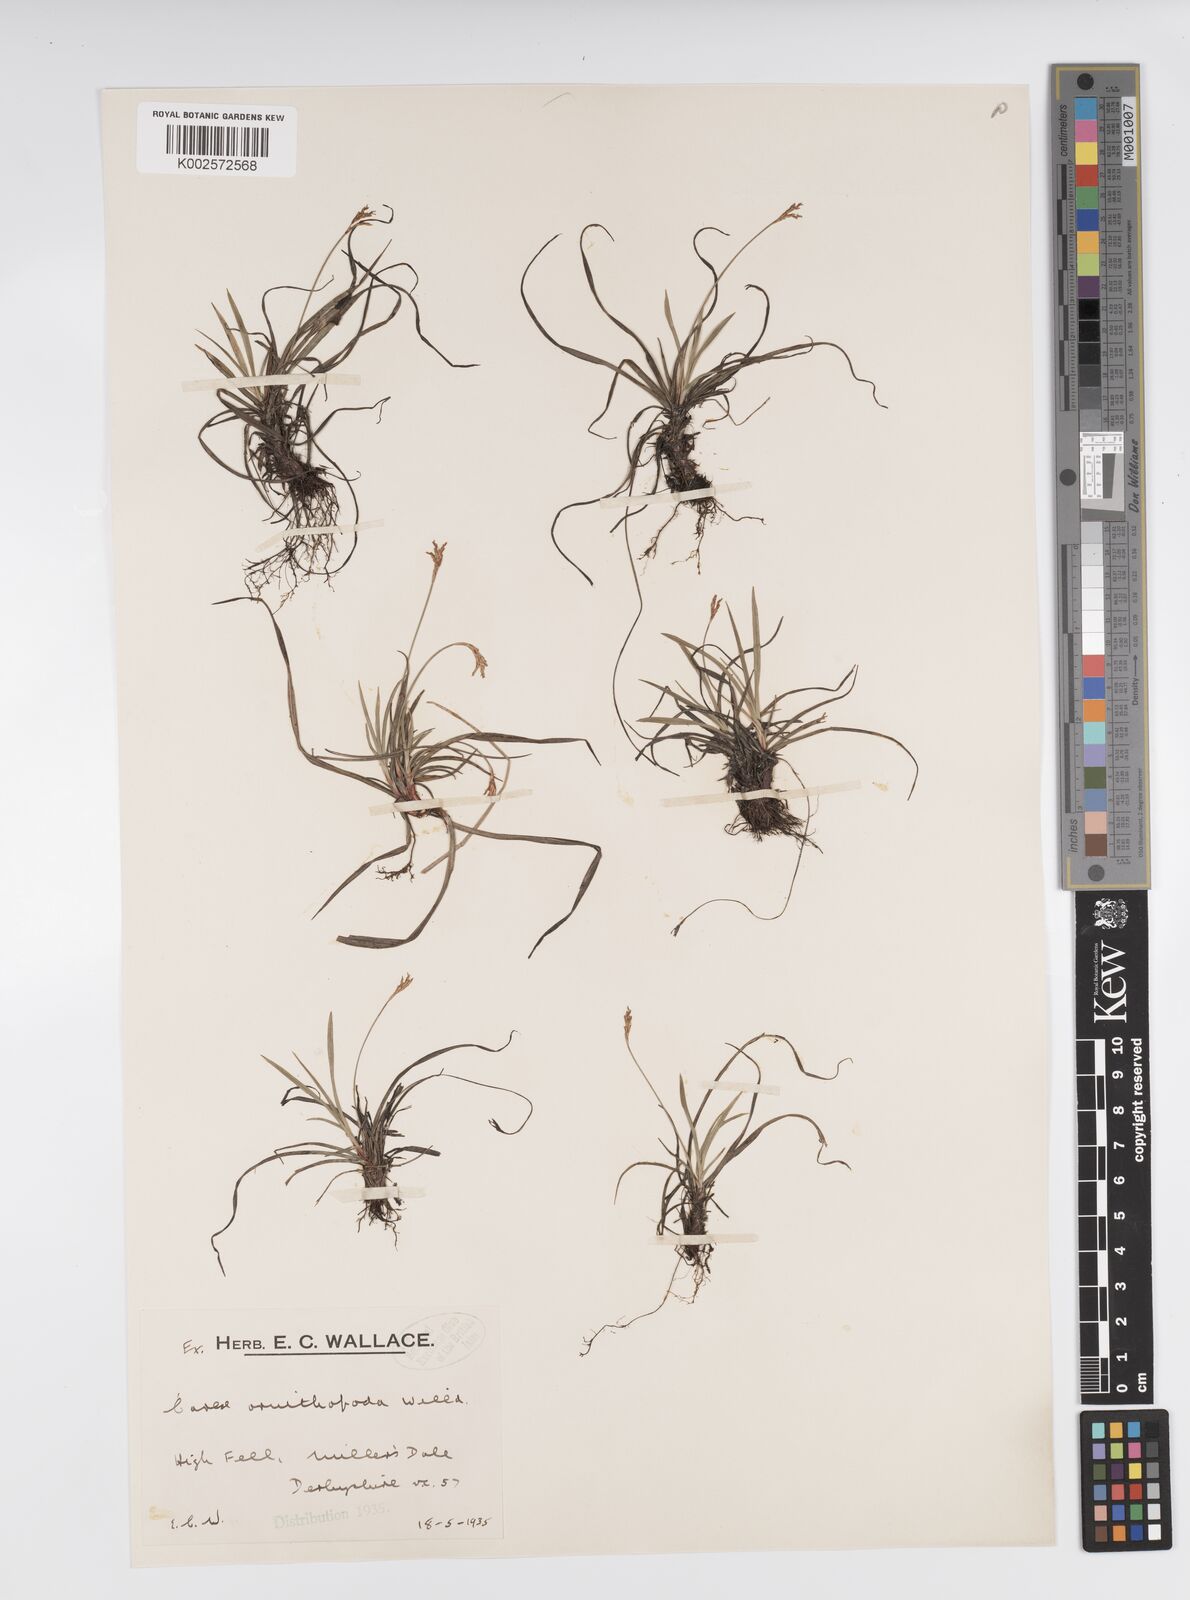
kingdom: Plantae
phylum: Tracheophyta
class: Liliopsida
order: Poales
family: Cyperaceae
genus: Carex
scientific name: Carex ornithopoda
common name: Bird's-foot sedge
